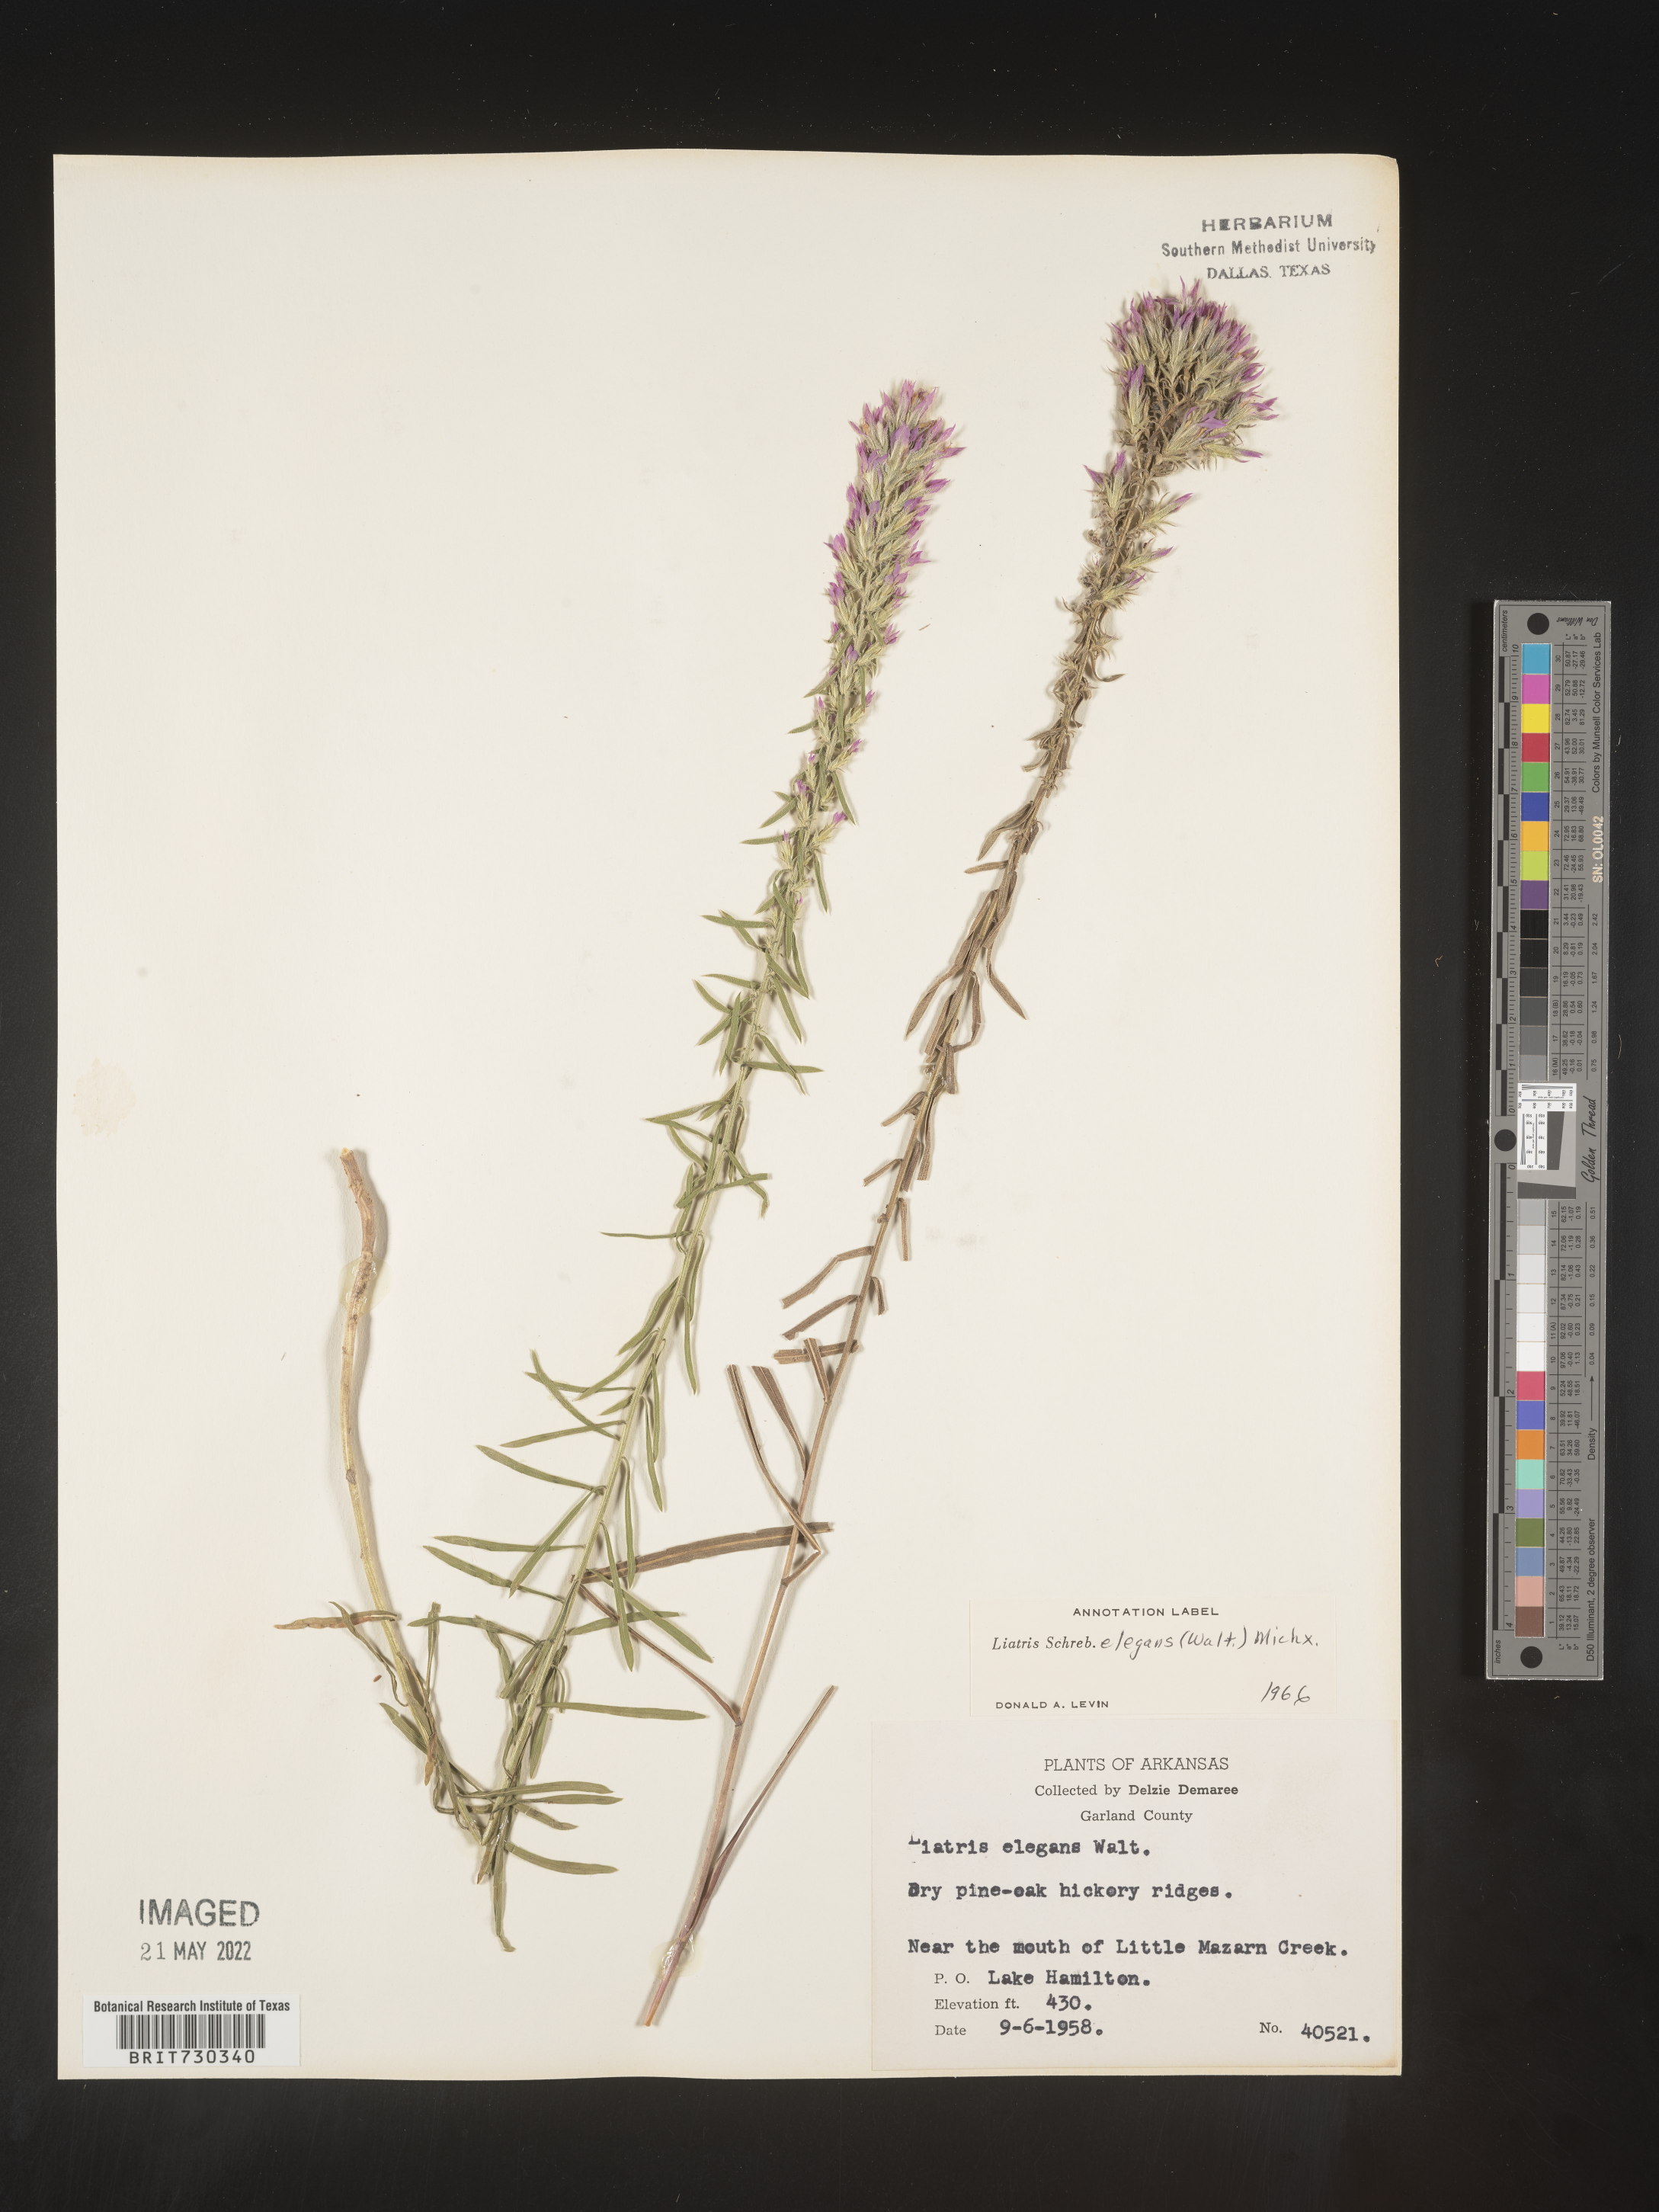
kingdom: Plantae
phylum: Tracheophyta
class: Magnoliopsida
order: Asterales
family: Asteraceae
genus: Liatris
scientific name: Liatris elegans
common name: Pinkscale gayfeather
